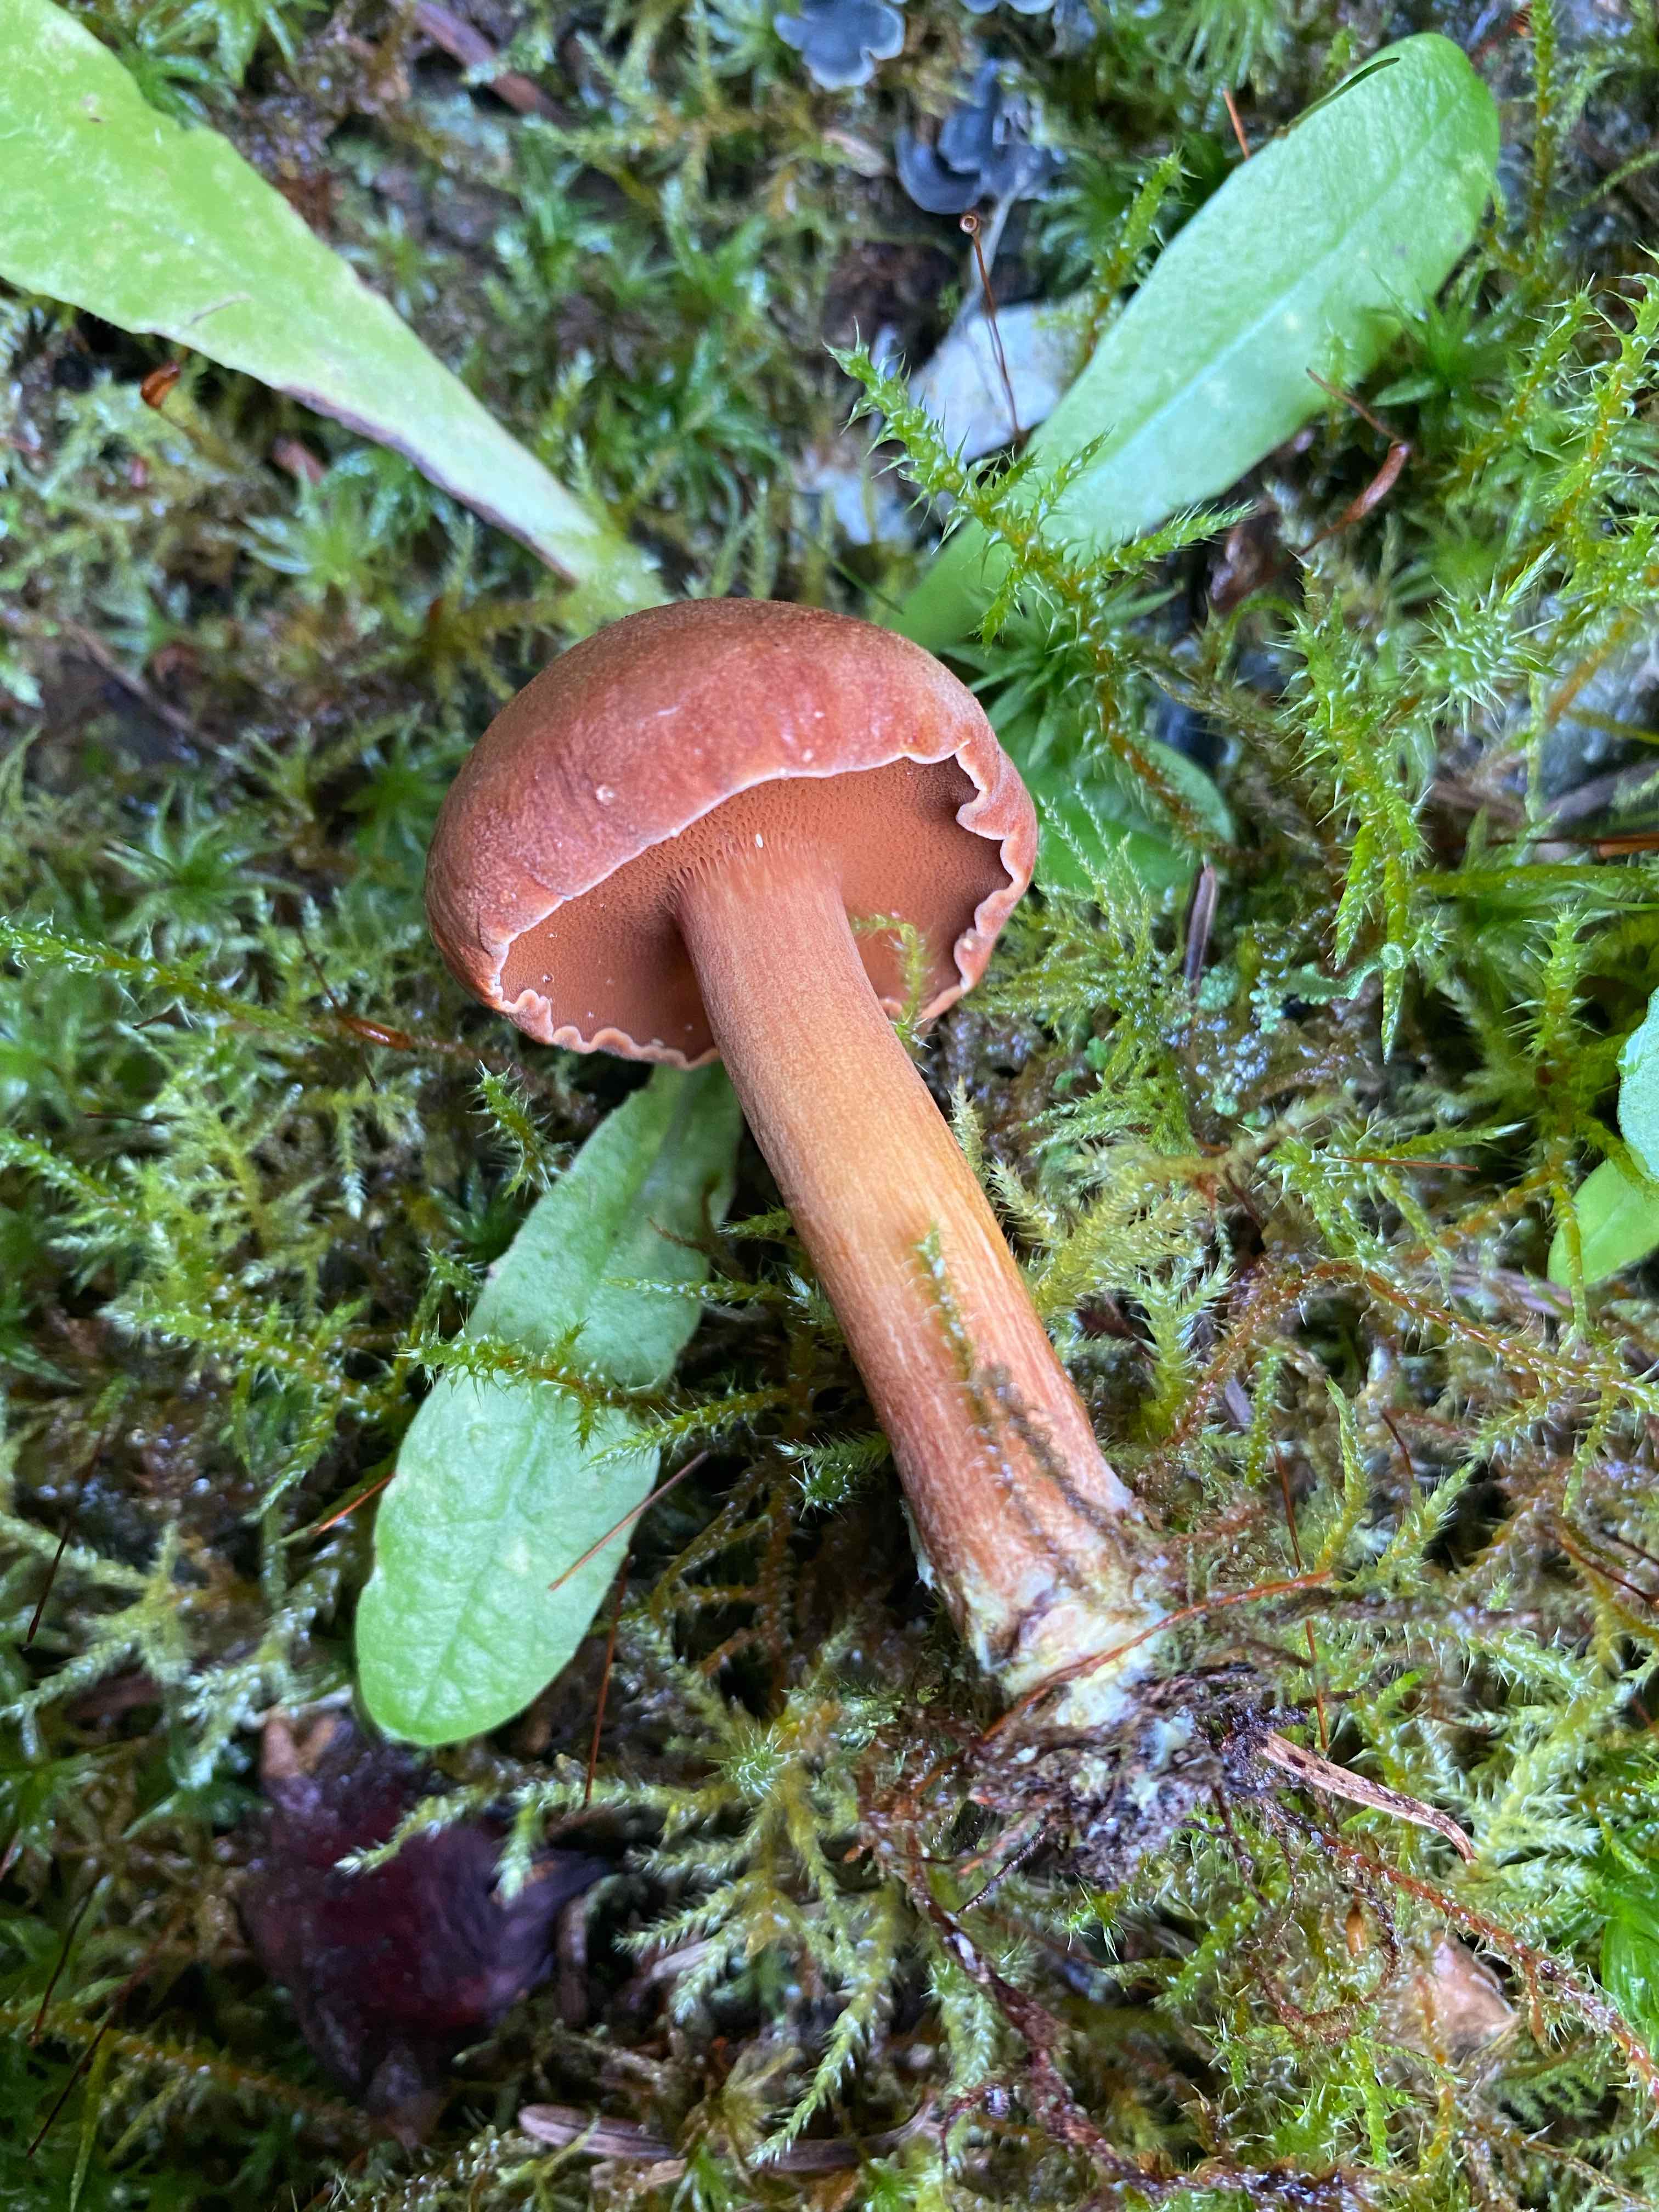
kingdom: Fungi
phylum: Basidiomycota
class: Agaricomycetes
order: Boletales
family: Boletaceae
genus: Chalciporus
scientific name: Chalciporus piperatus
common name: peberrørhat
